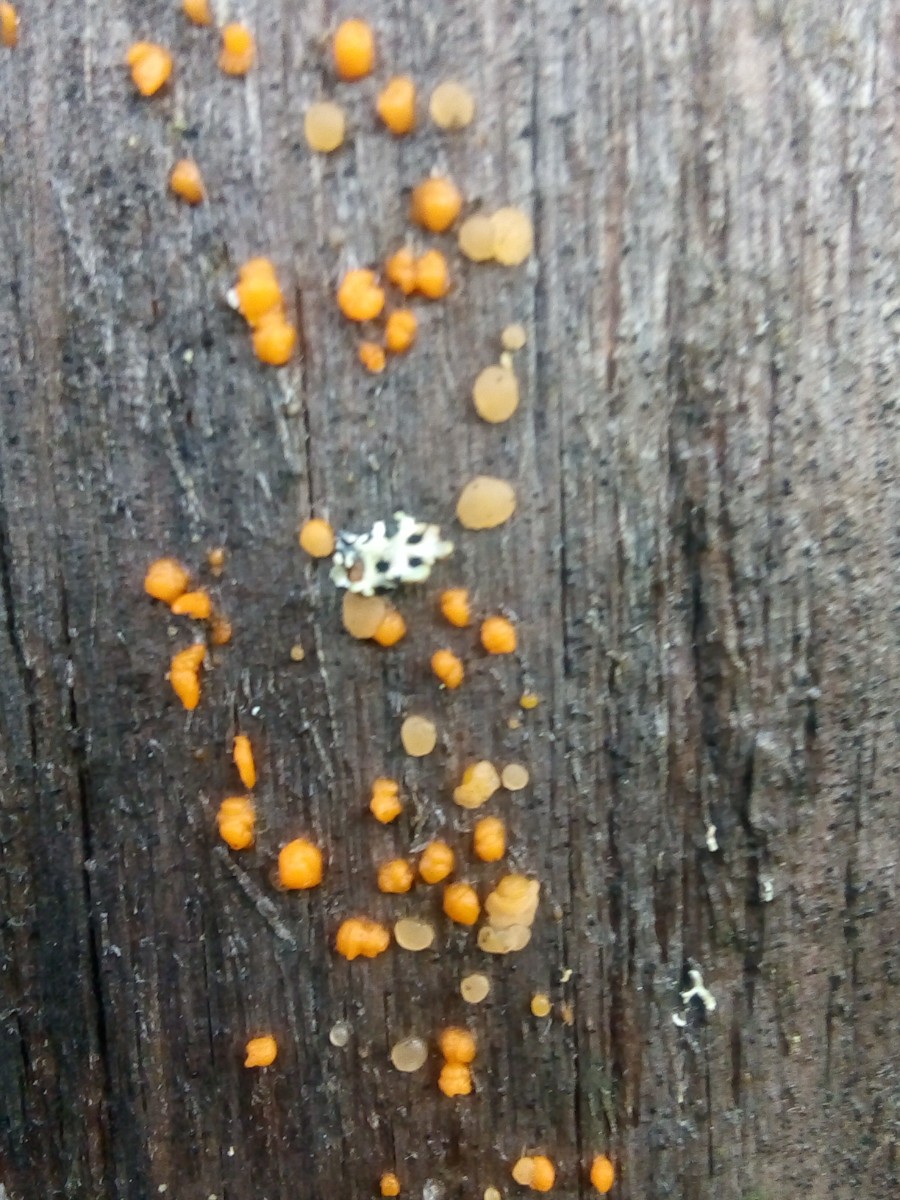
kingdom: Fungi
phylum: Basidiomycota
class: Dacrymycetes
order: Dacrymycetales
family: Dacrymycetaceae
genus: Dacrymyces
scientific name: Dacrymyces stillatus
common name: almindelig tåresvamp
